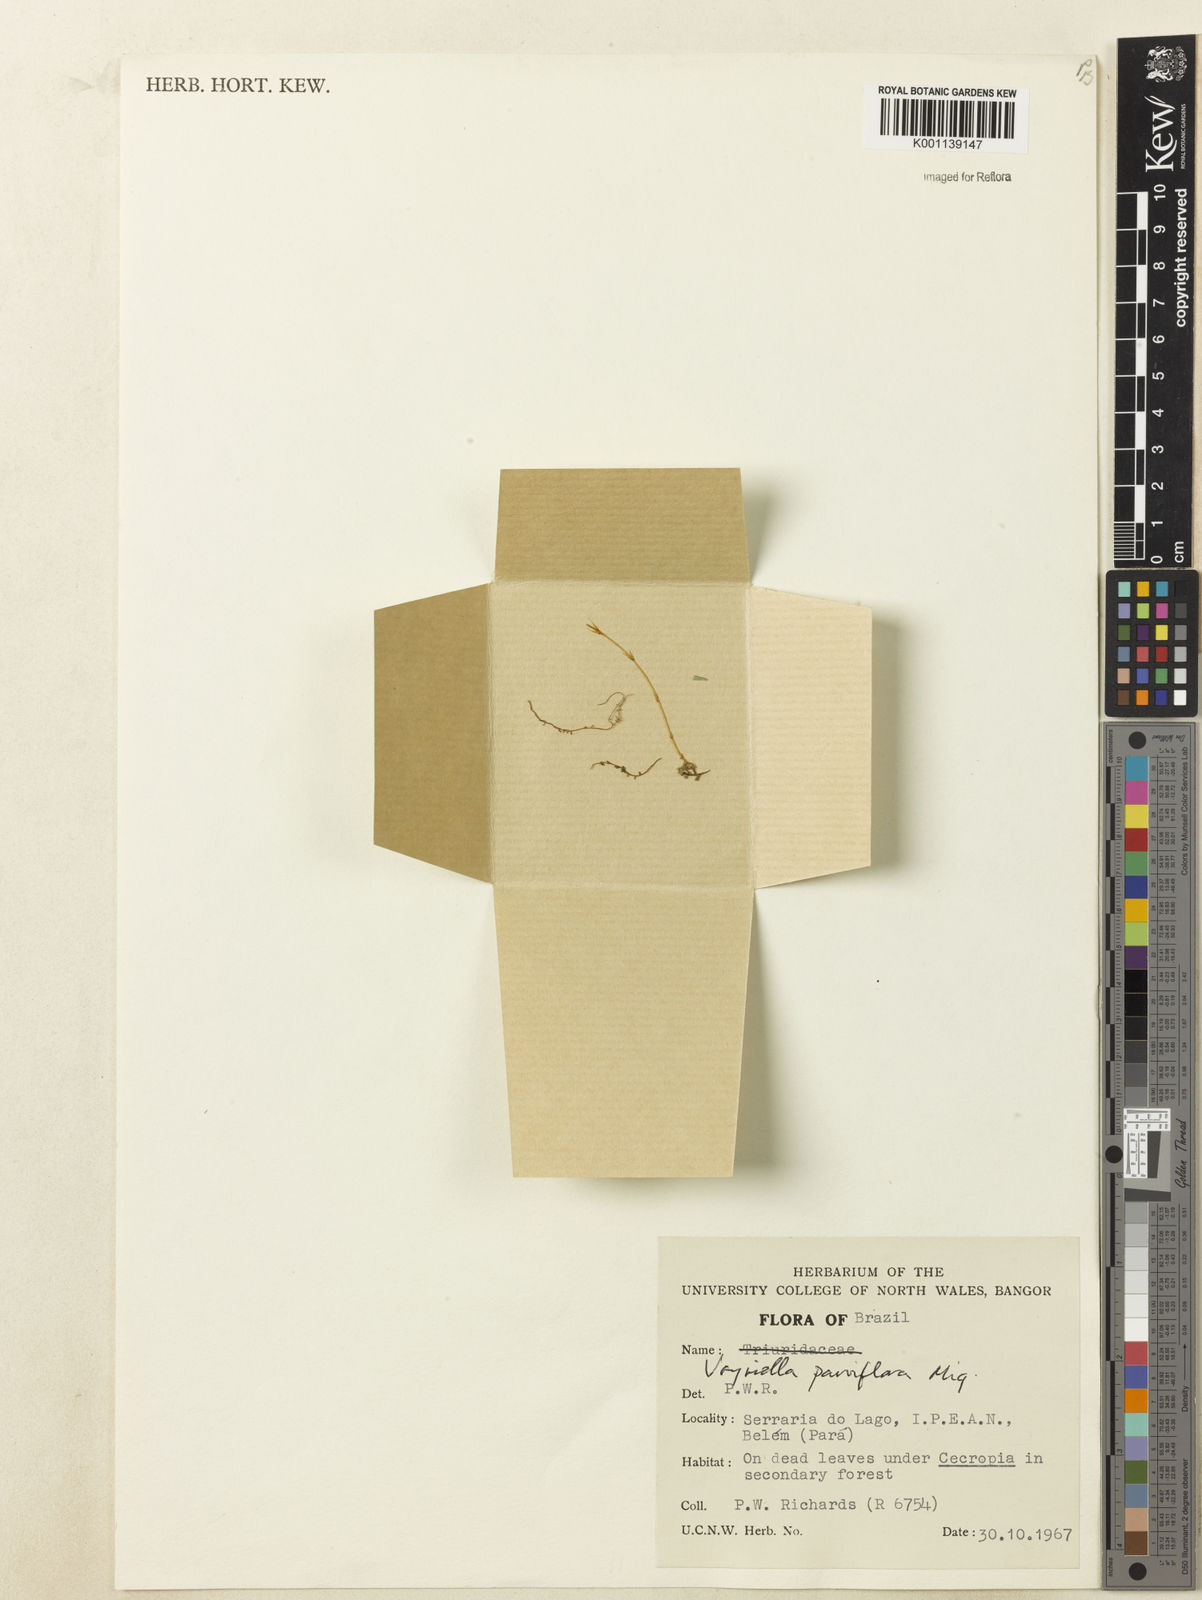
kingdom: Plantae
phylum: Tracheophyta
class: Magnoliopsida
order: Gentianales
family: Gentianaceae
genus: Voyriella
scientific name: Voyriella parviflora
